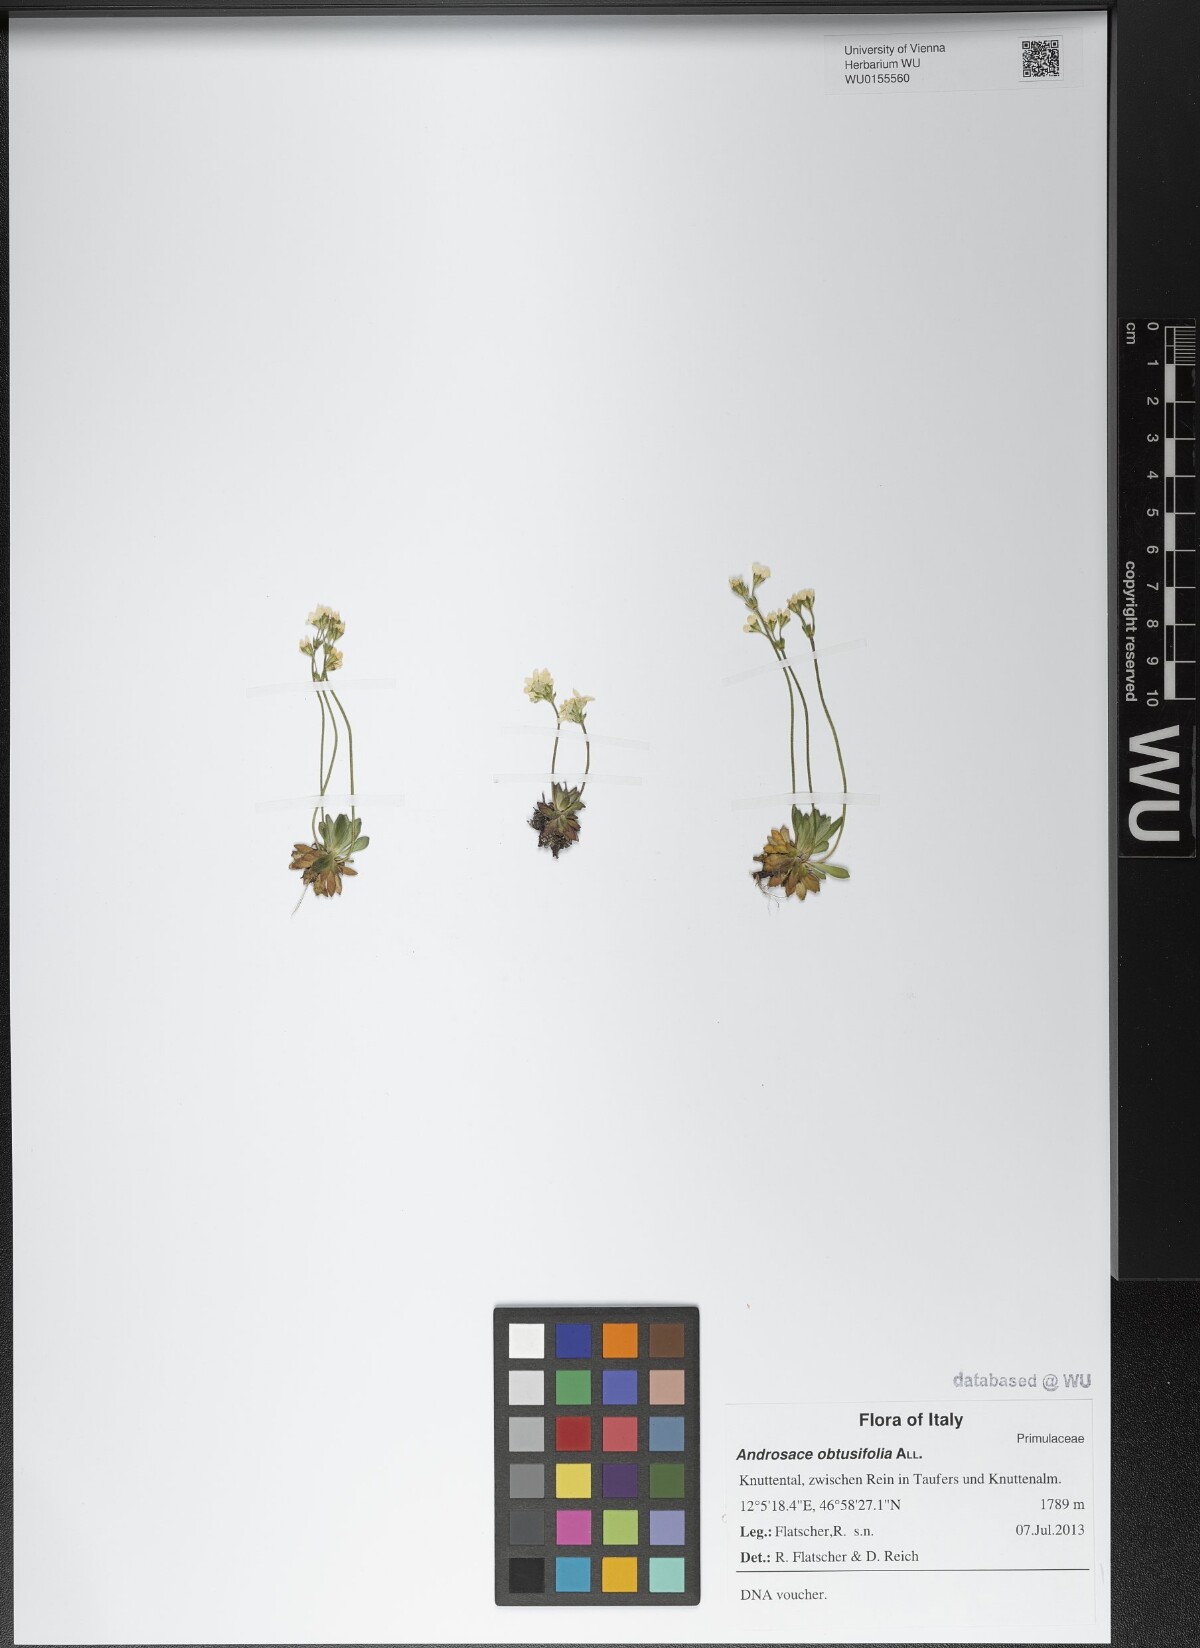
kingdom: Plantae
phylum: Tracheophyta
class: Magnoliopsida
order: Ericales
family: Primulaceae
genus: Androsace
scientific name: Androsace obtusifolia
